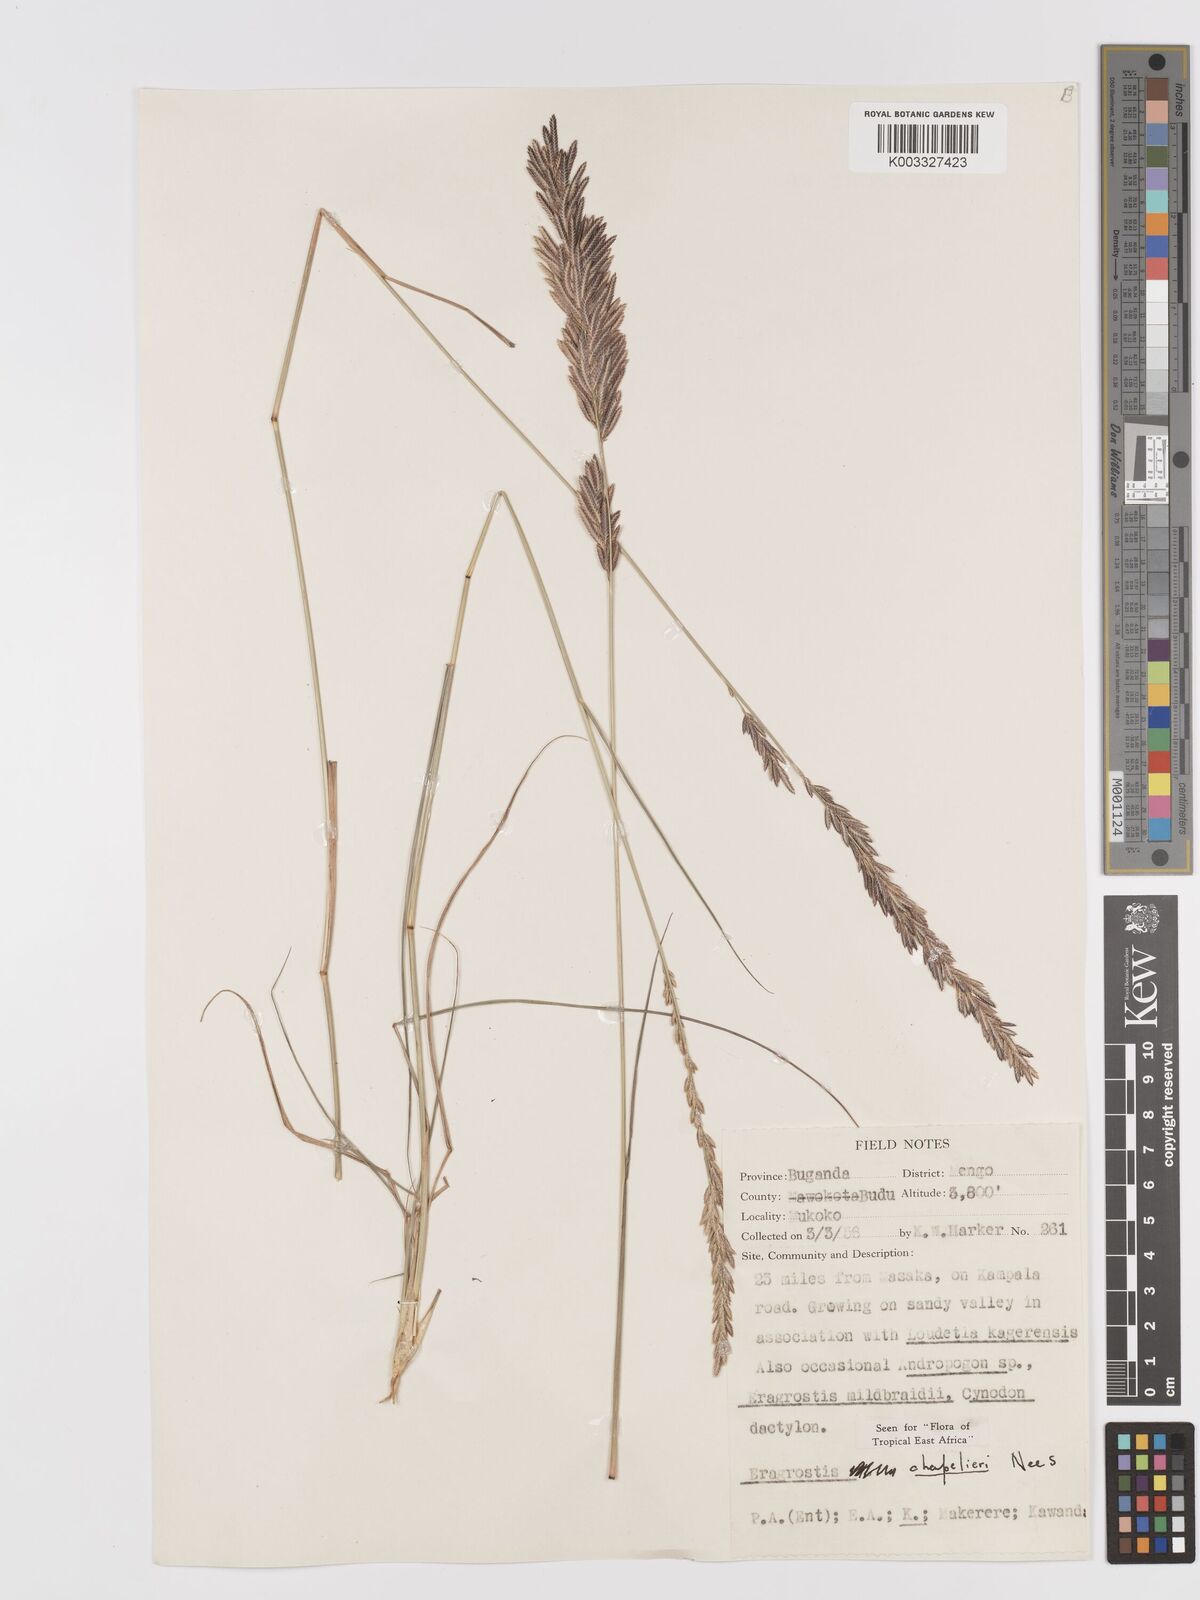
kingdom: Plantae
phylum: Tracheophyta
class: Liliopsida
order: Poales
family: Poaceae
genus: Eragrostis
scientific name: Eragrostis chapelieri
